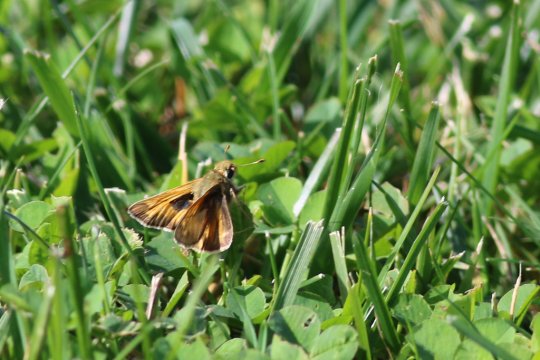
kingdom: Animalia
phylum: Arthropoda
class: Insecta
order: Lepidoptera
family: Hesperiidae
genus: Atalopedes
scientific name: Atalopedes campestris
